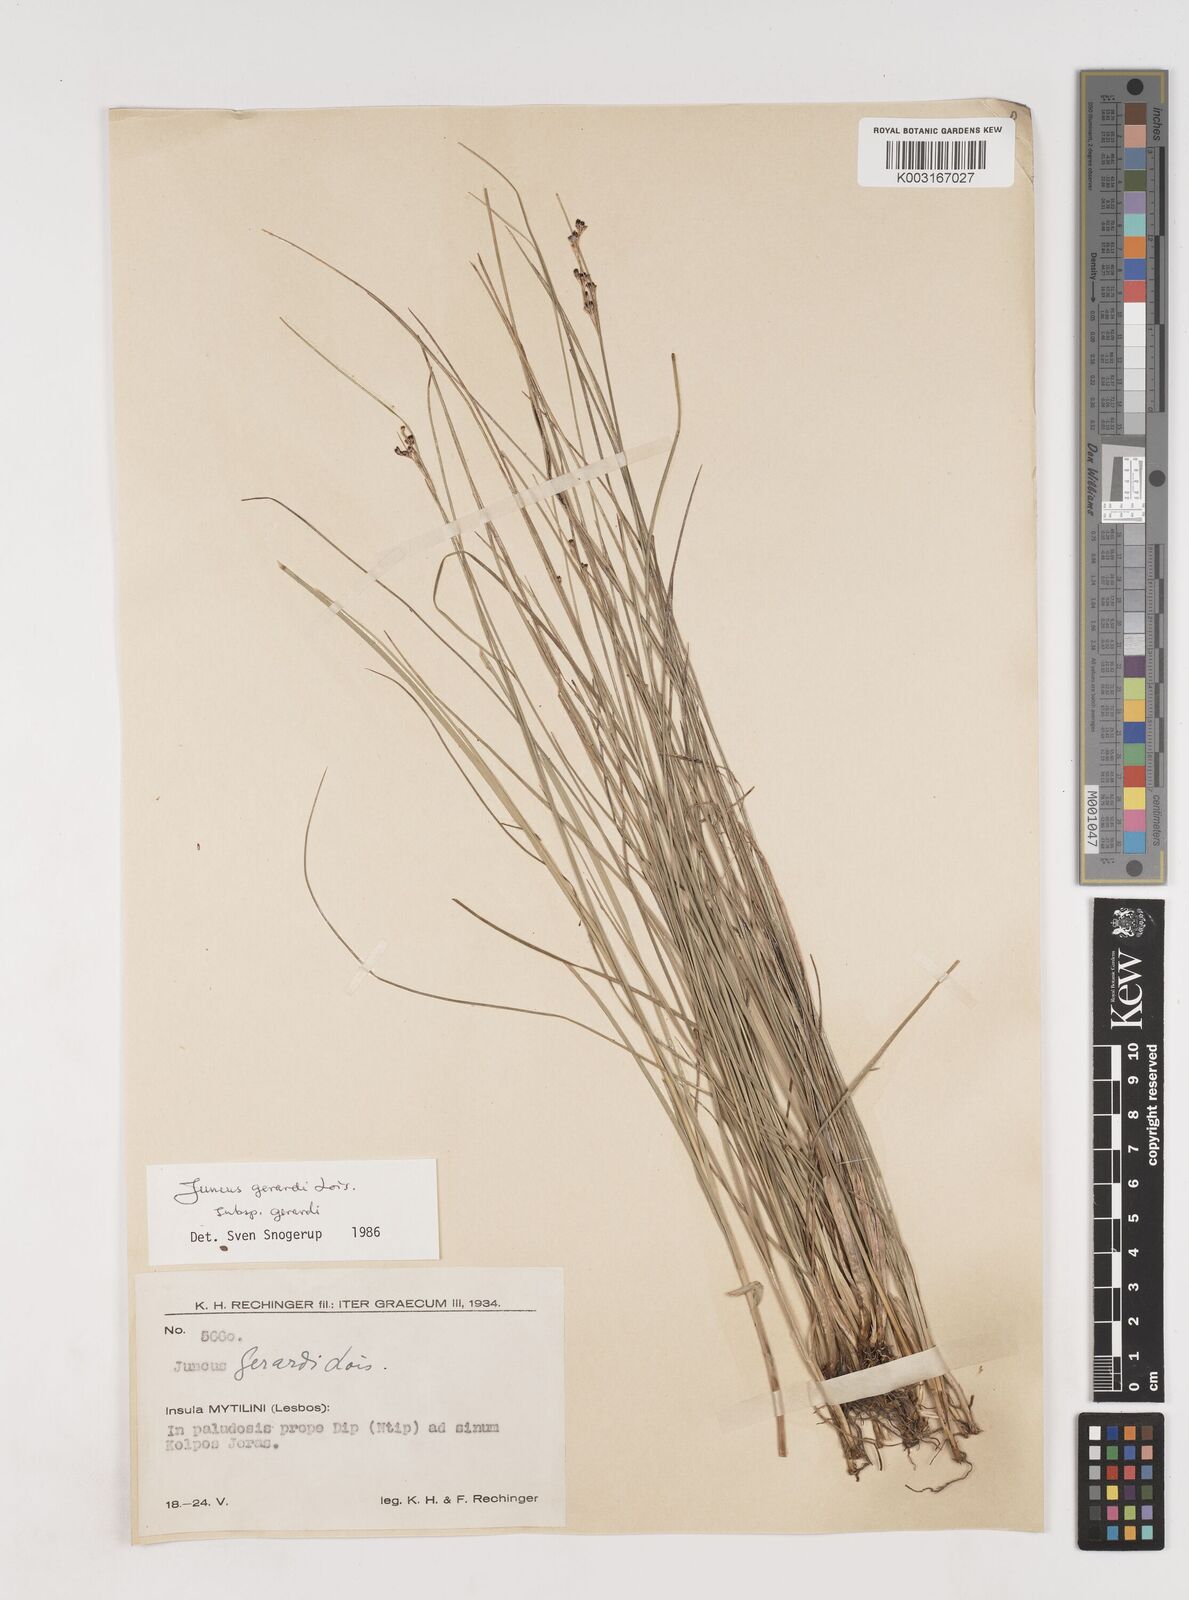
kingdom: Plantae
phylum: Tracheophyta
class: Liliopsida
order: Poales
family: Juncaceae
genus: Juncus
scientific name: Juncus gerardi
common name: Saltmarsh rush
